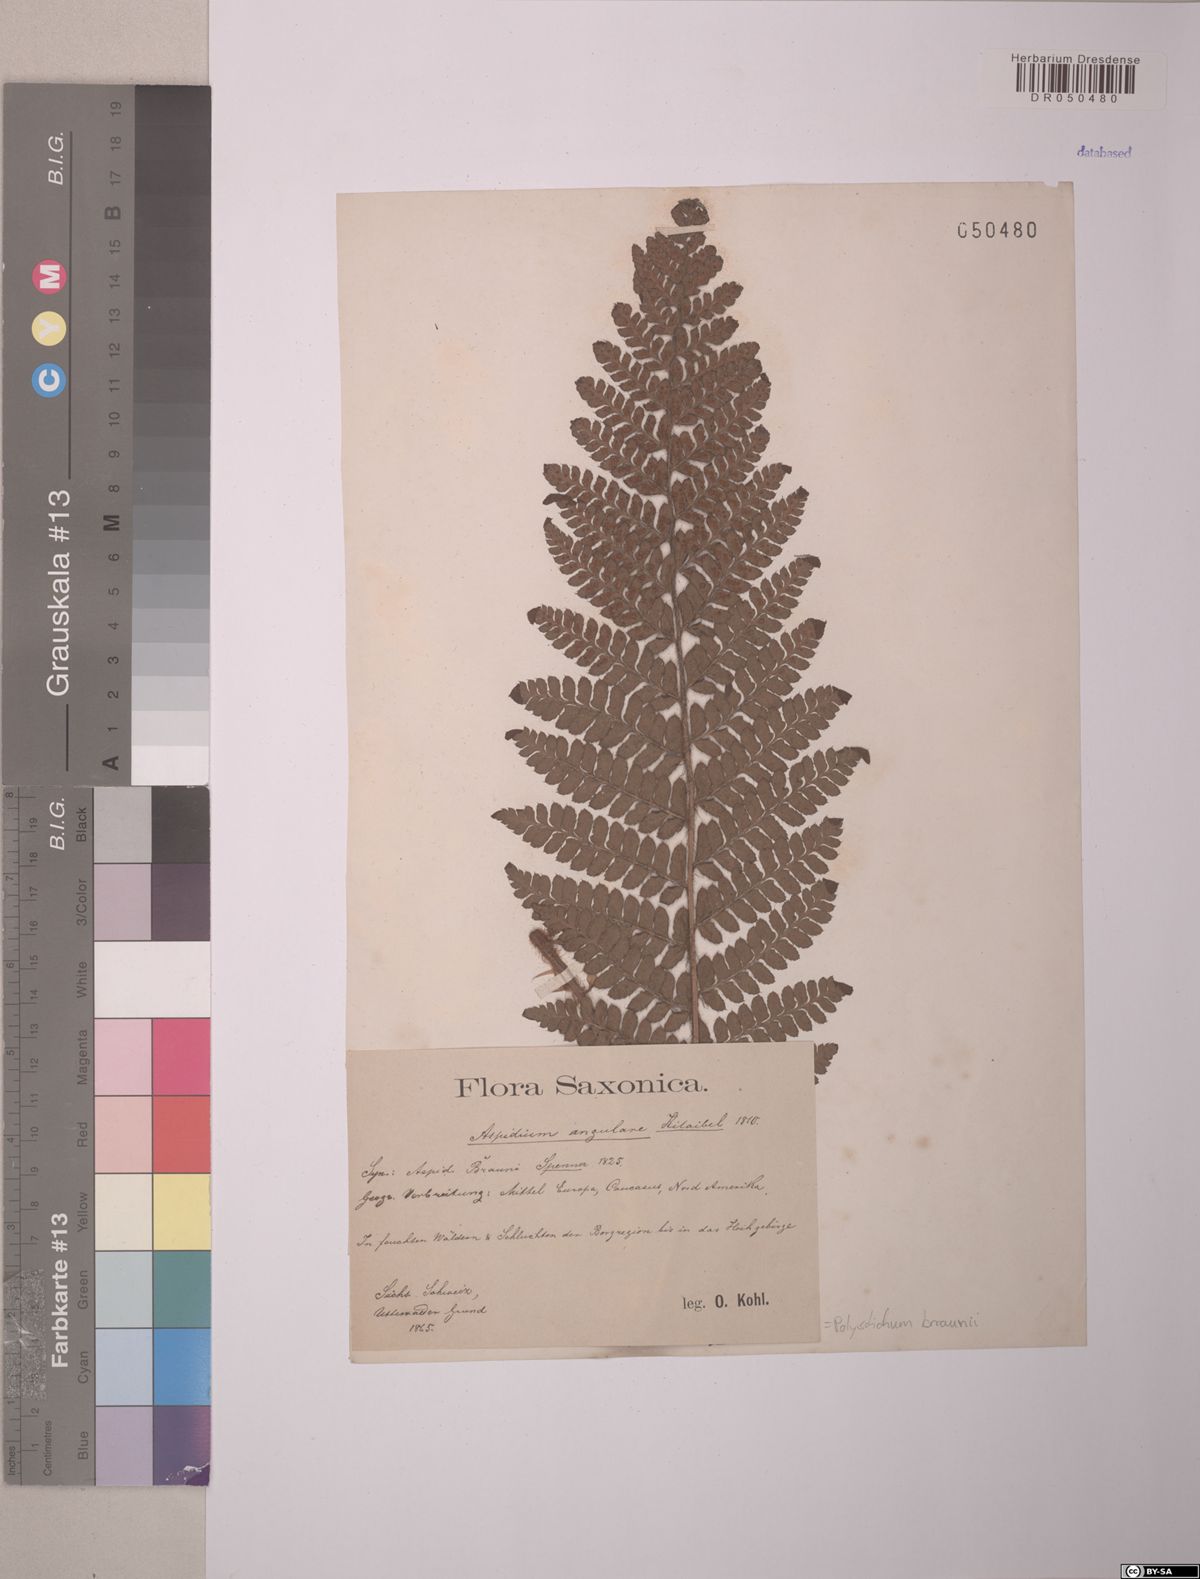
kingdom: Plantae
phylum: Tracheophyta
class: Polypodiopsida
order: Polypodiales
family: Dryopteridaceae
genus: Polystichum
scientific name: Polystichum braunii
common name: Braun's holly fern
